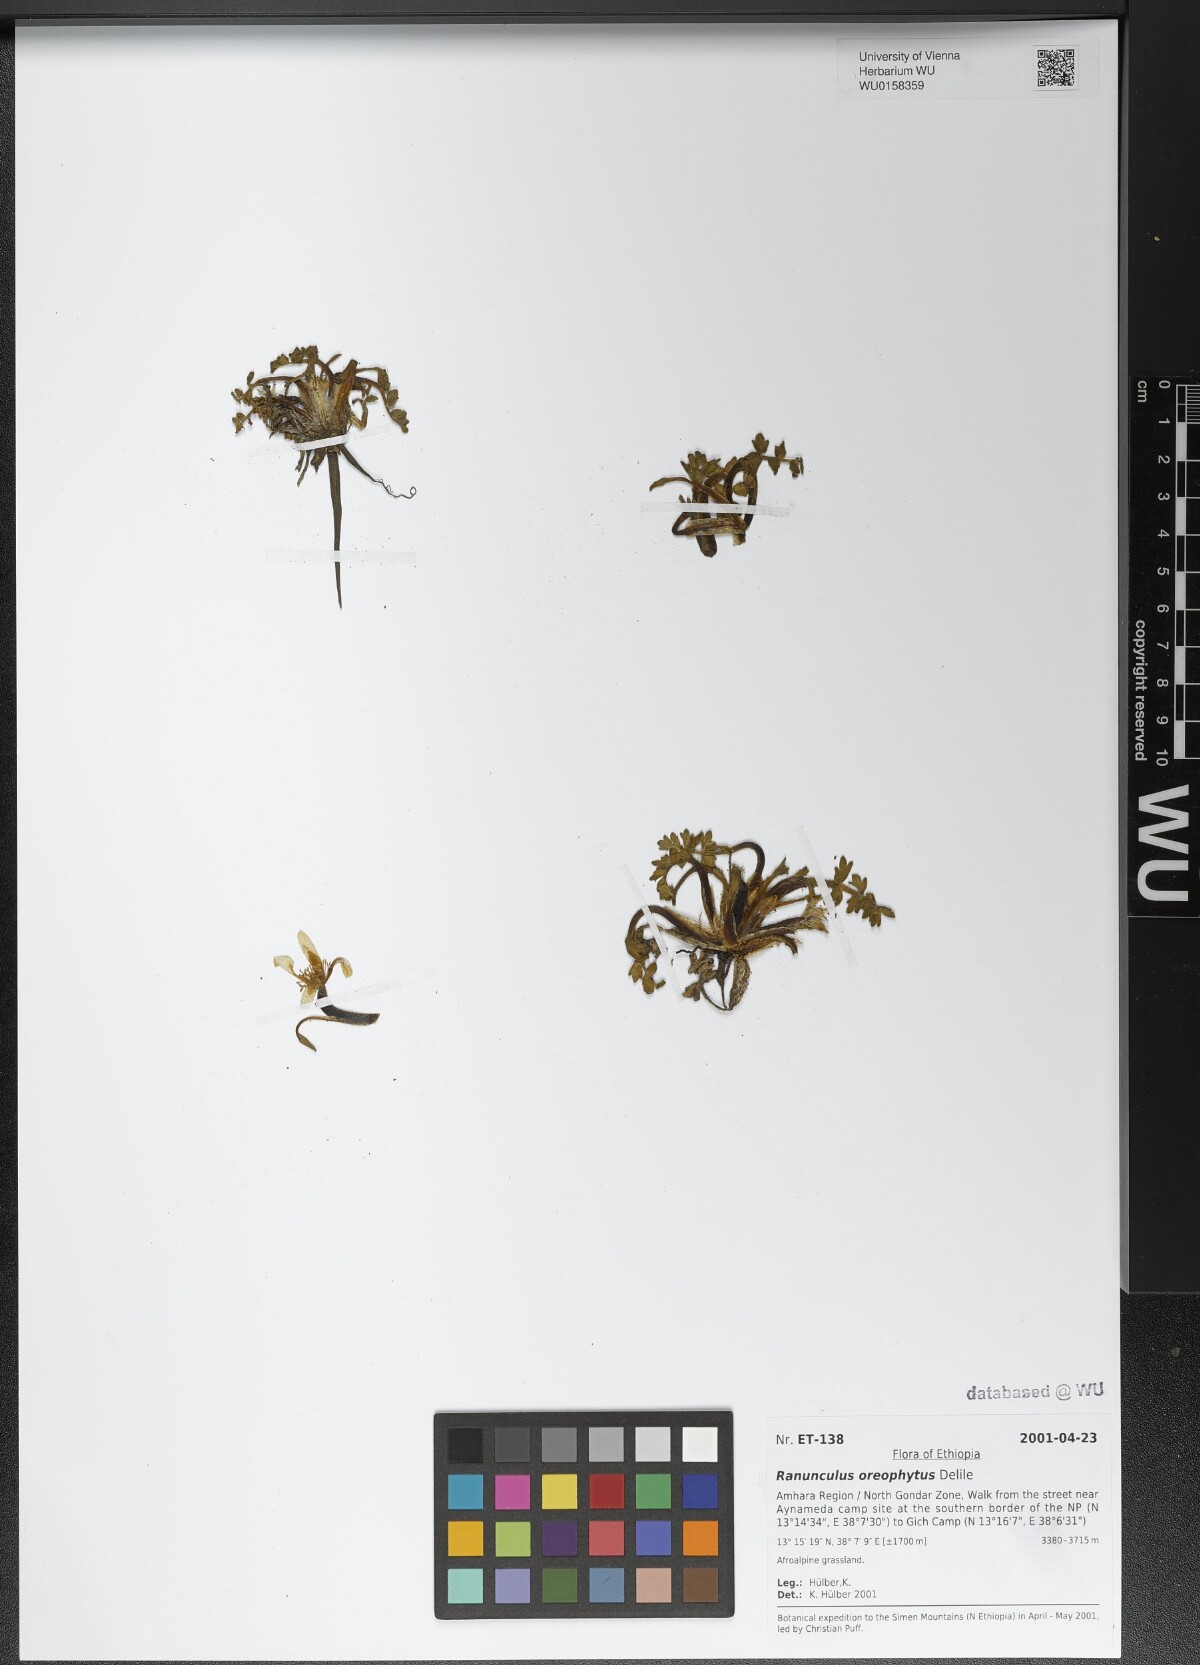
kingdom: Plantae
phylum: Tracheophyta
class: Magnoliopsida
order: Ranunculales
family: Ranunculaceae
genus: Ranunculus
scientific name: Ranunculus oreophytus
